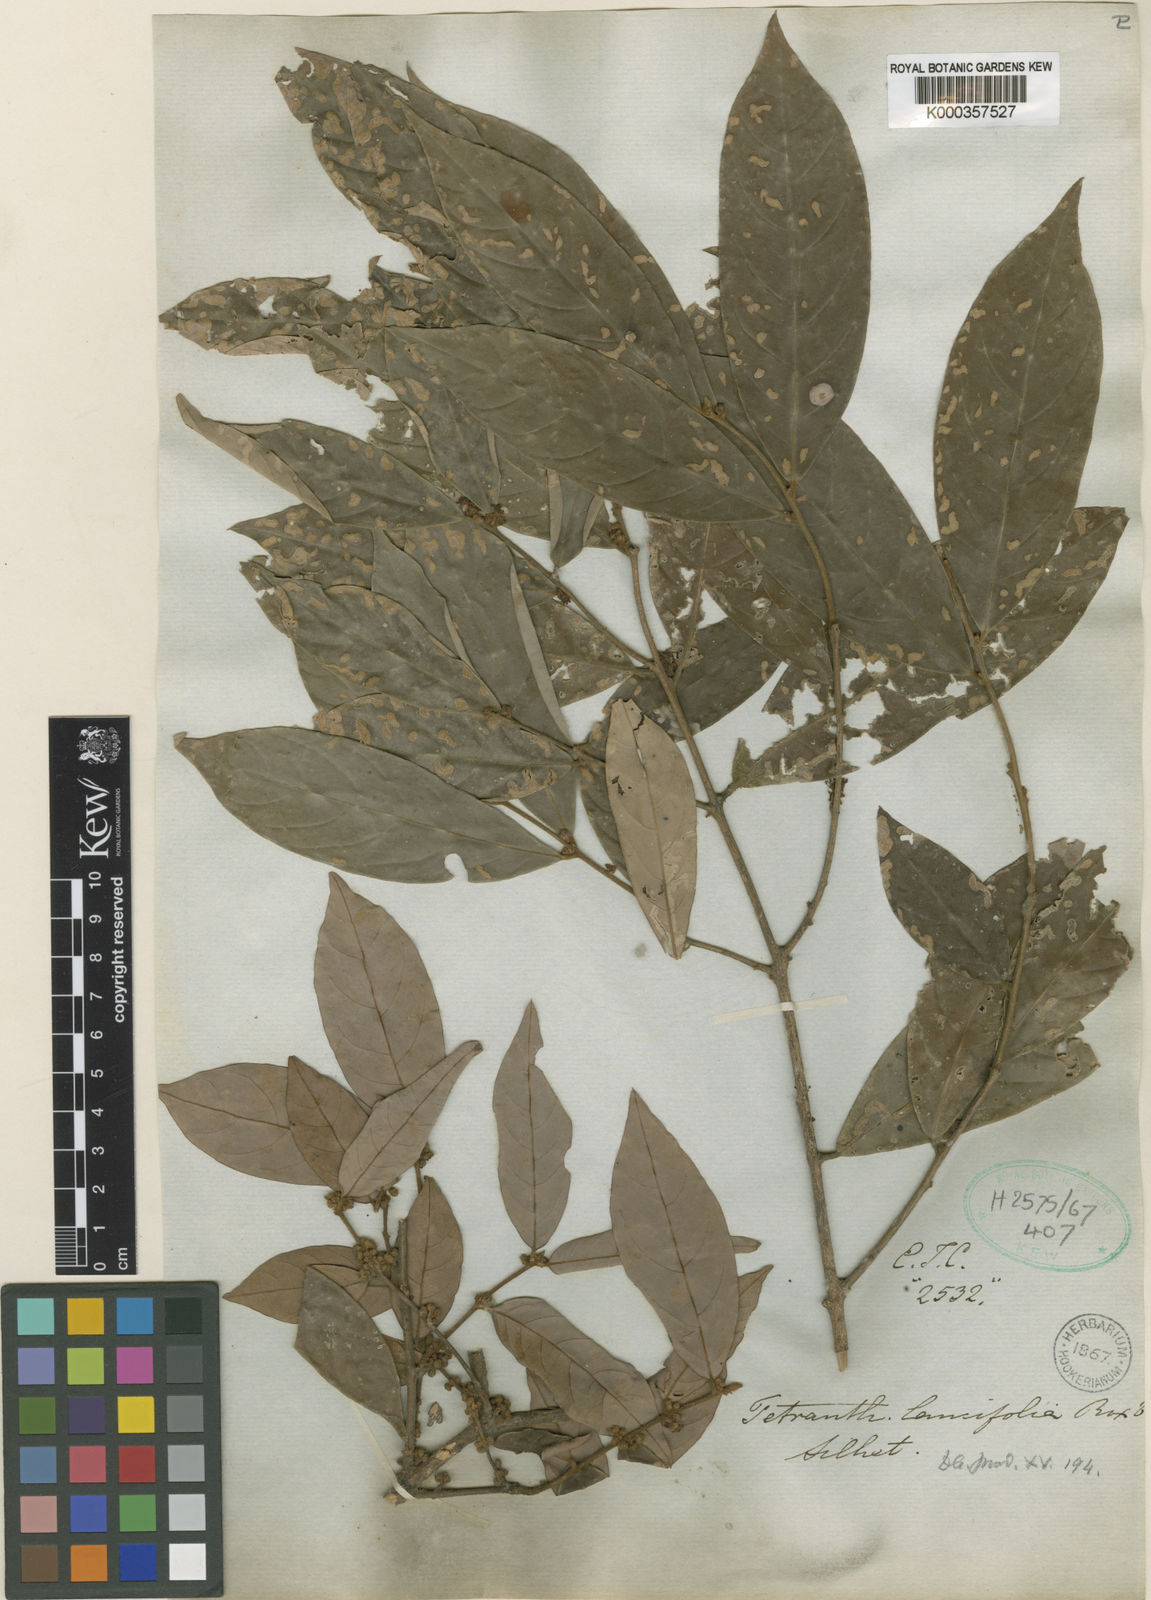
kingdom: Plantae
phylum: Tracheophyta
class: Magnoliopsida
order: Laurales
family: Lauraceae
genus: Litsea
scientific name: Litsea lancifolia
